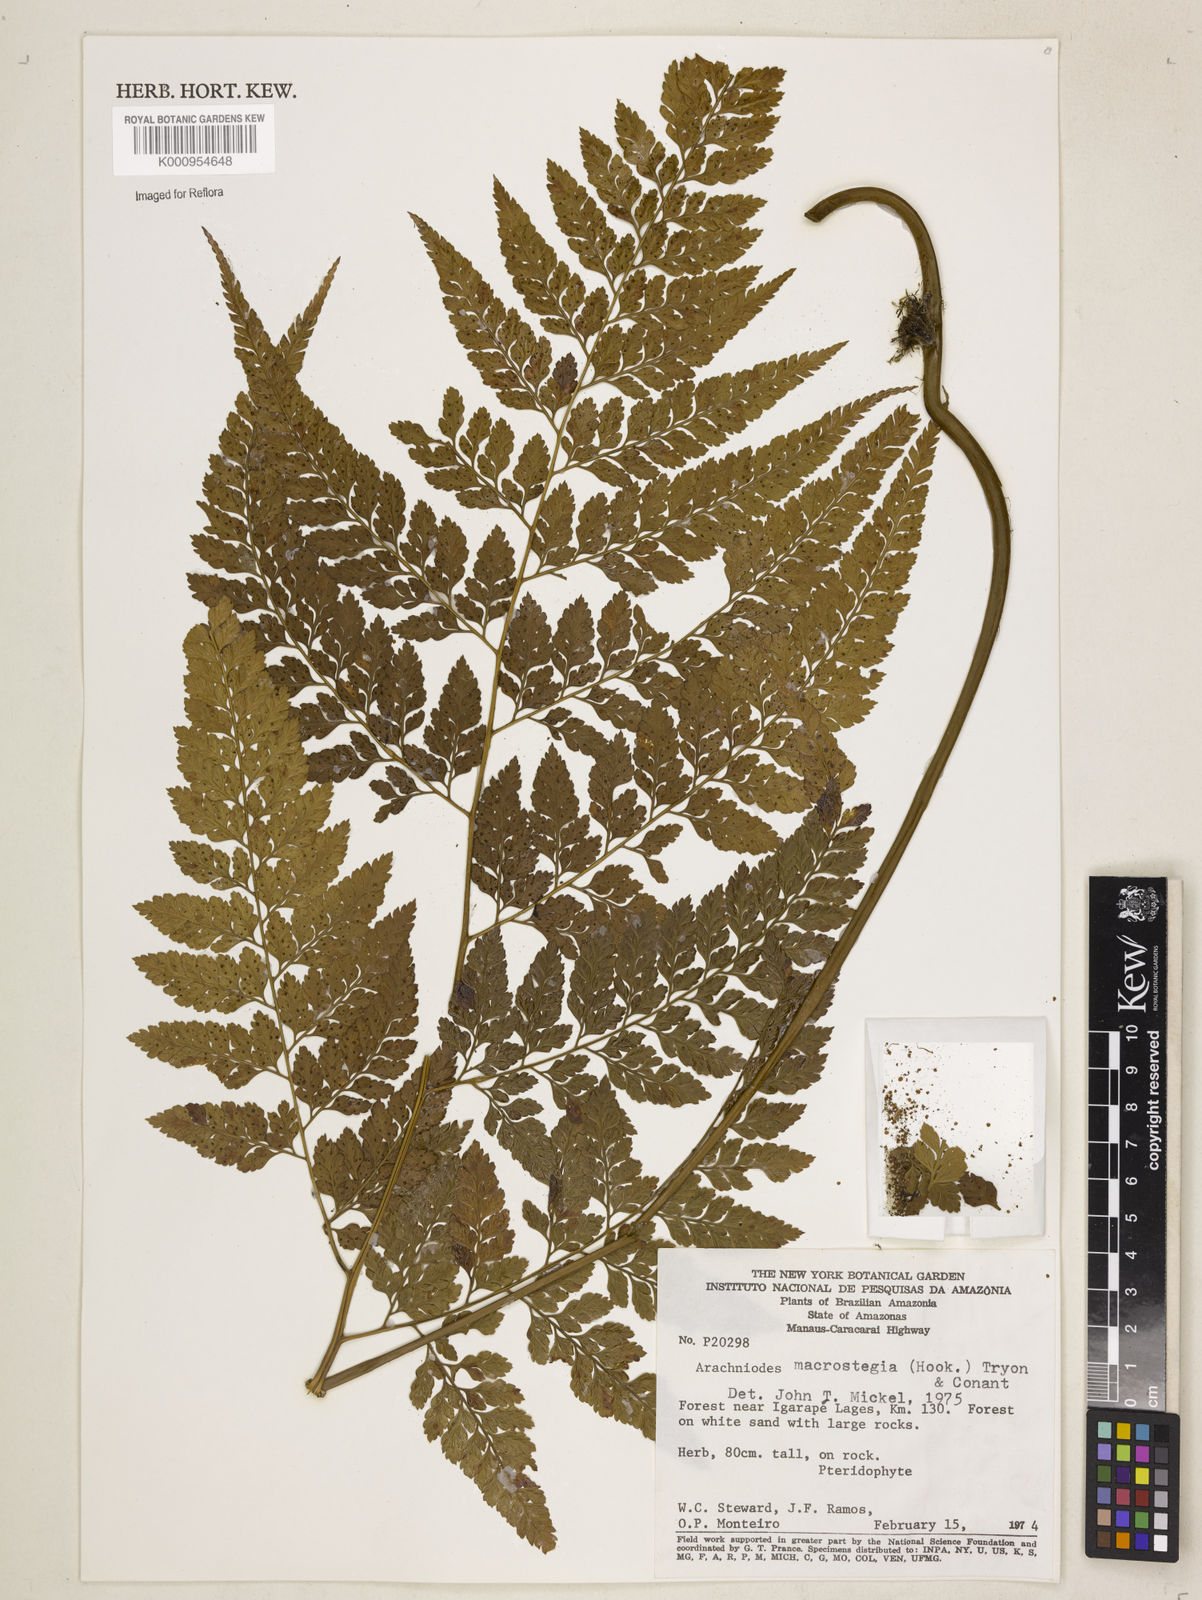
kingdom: Plantae
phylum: Tracheophyta
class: Polypodiopsida
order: Polypodiales
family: Dryopteridaceae
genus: Olfersia
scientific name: Olfersia macrostegia
